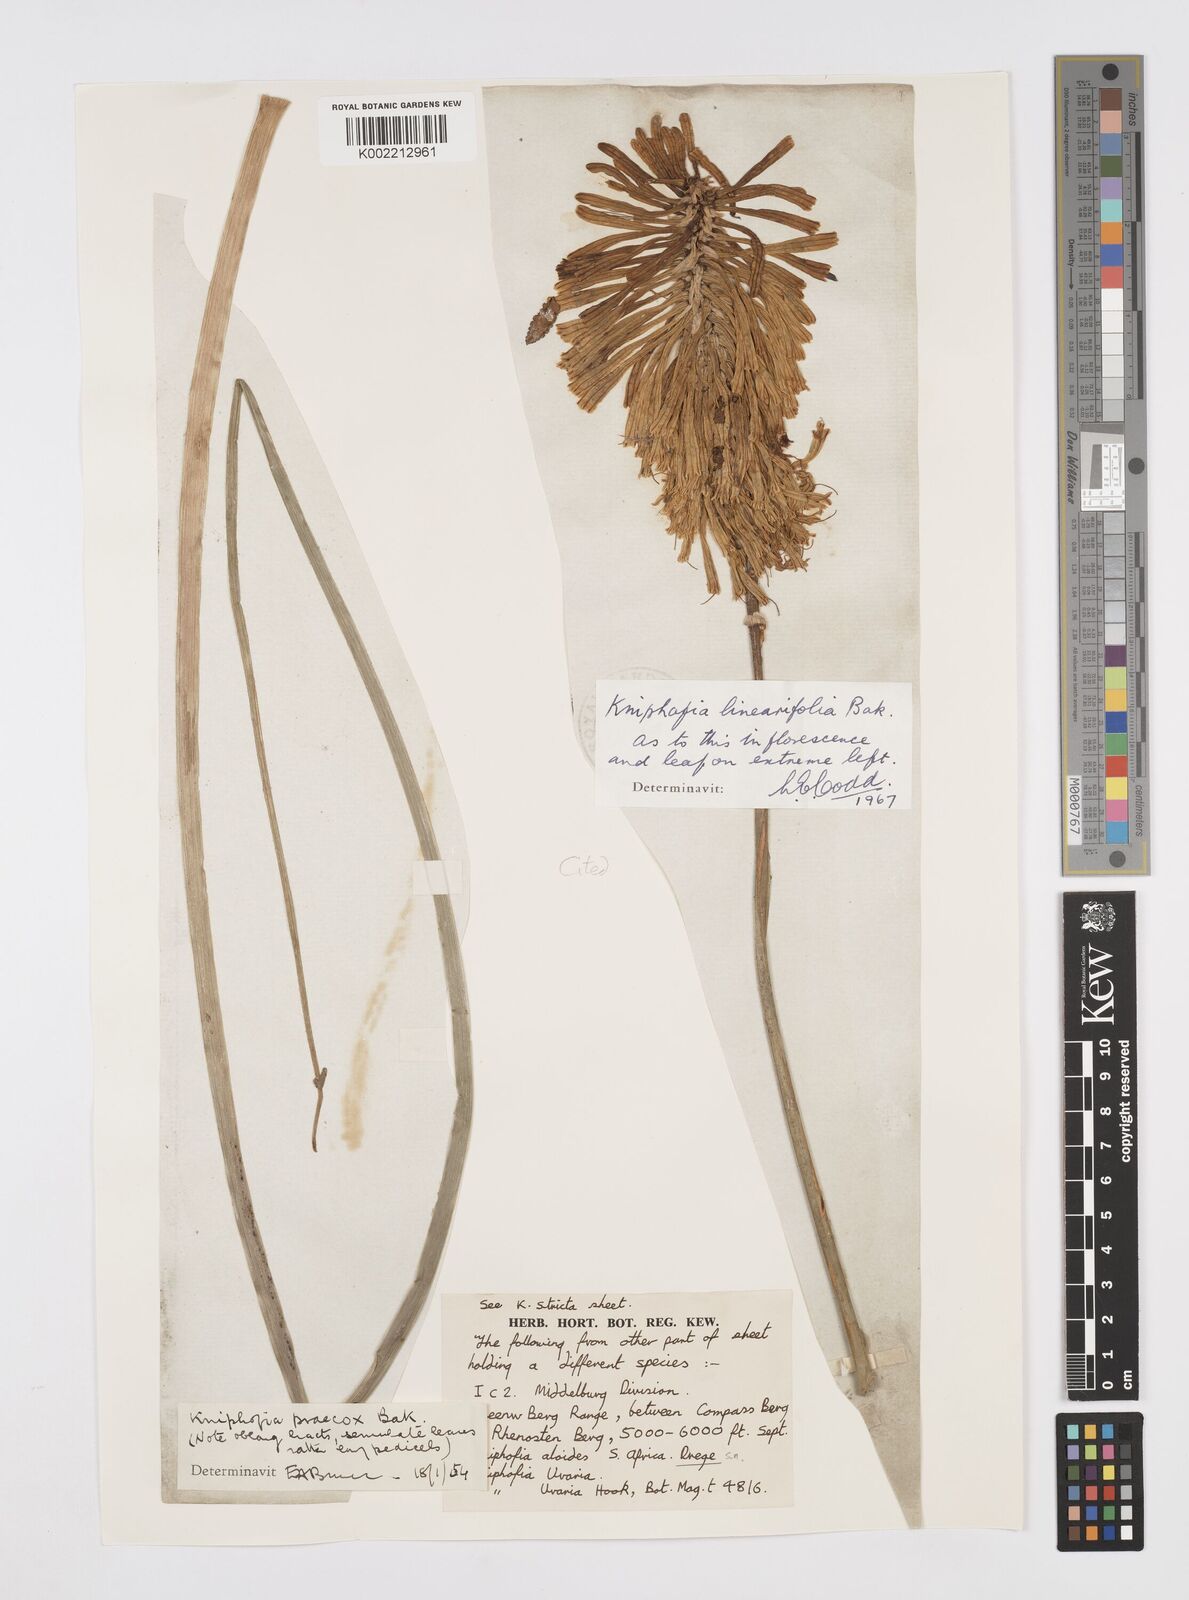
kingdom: Plantae
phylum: Tracheophyta
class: Liliopsida
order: Asparagales
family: Asphodelaceae
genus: Kniphofia
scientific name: Kniphofia linearifolia
